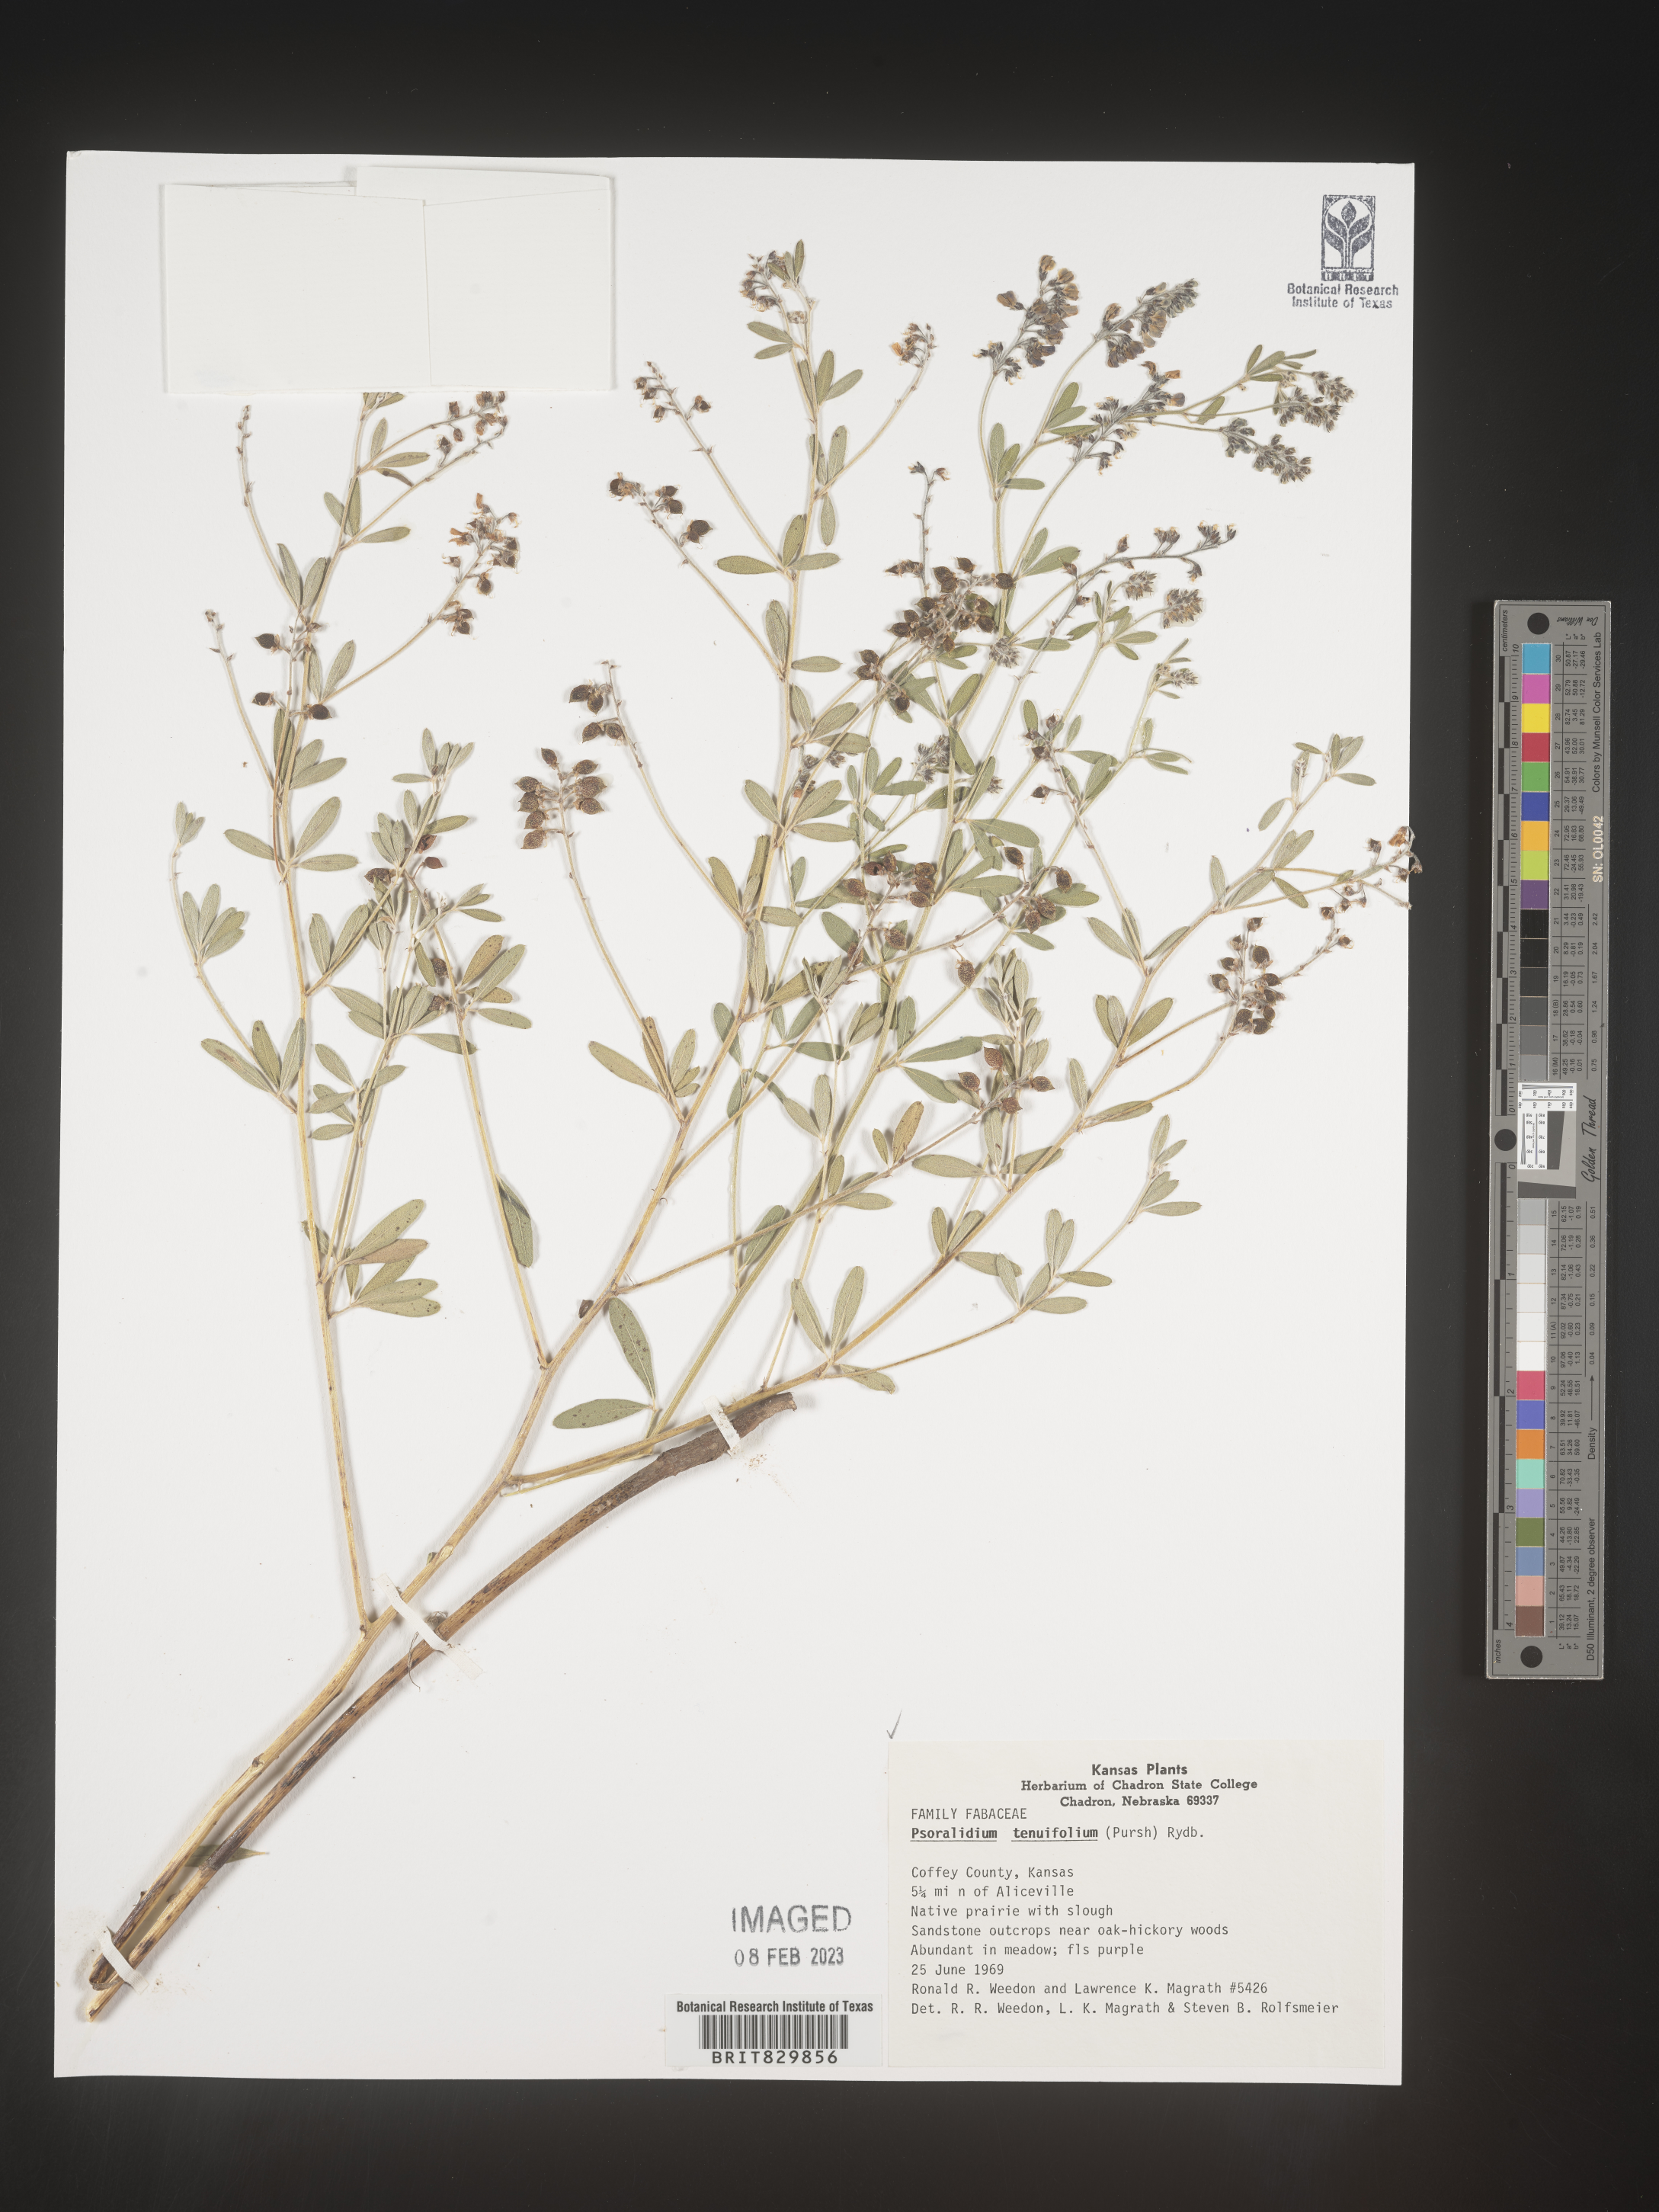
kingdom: Plantae
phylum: Tracheophyta
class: Magnoliopsida
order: Fabales
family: Fabaceae
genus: Pediomelum
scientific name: Pediomelum tenuiflorum
